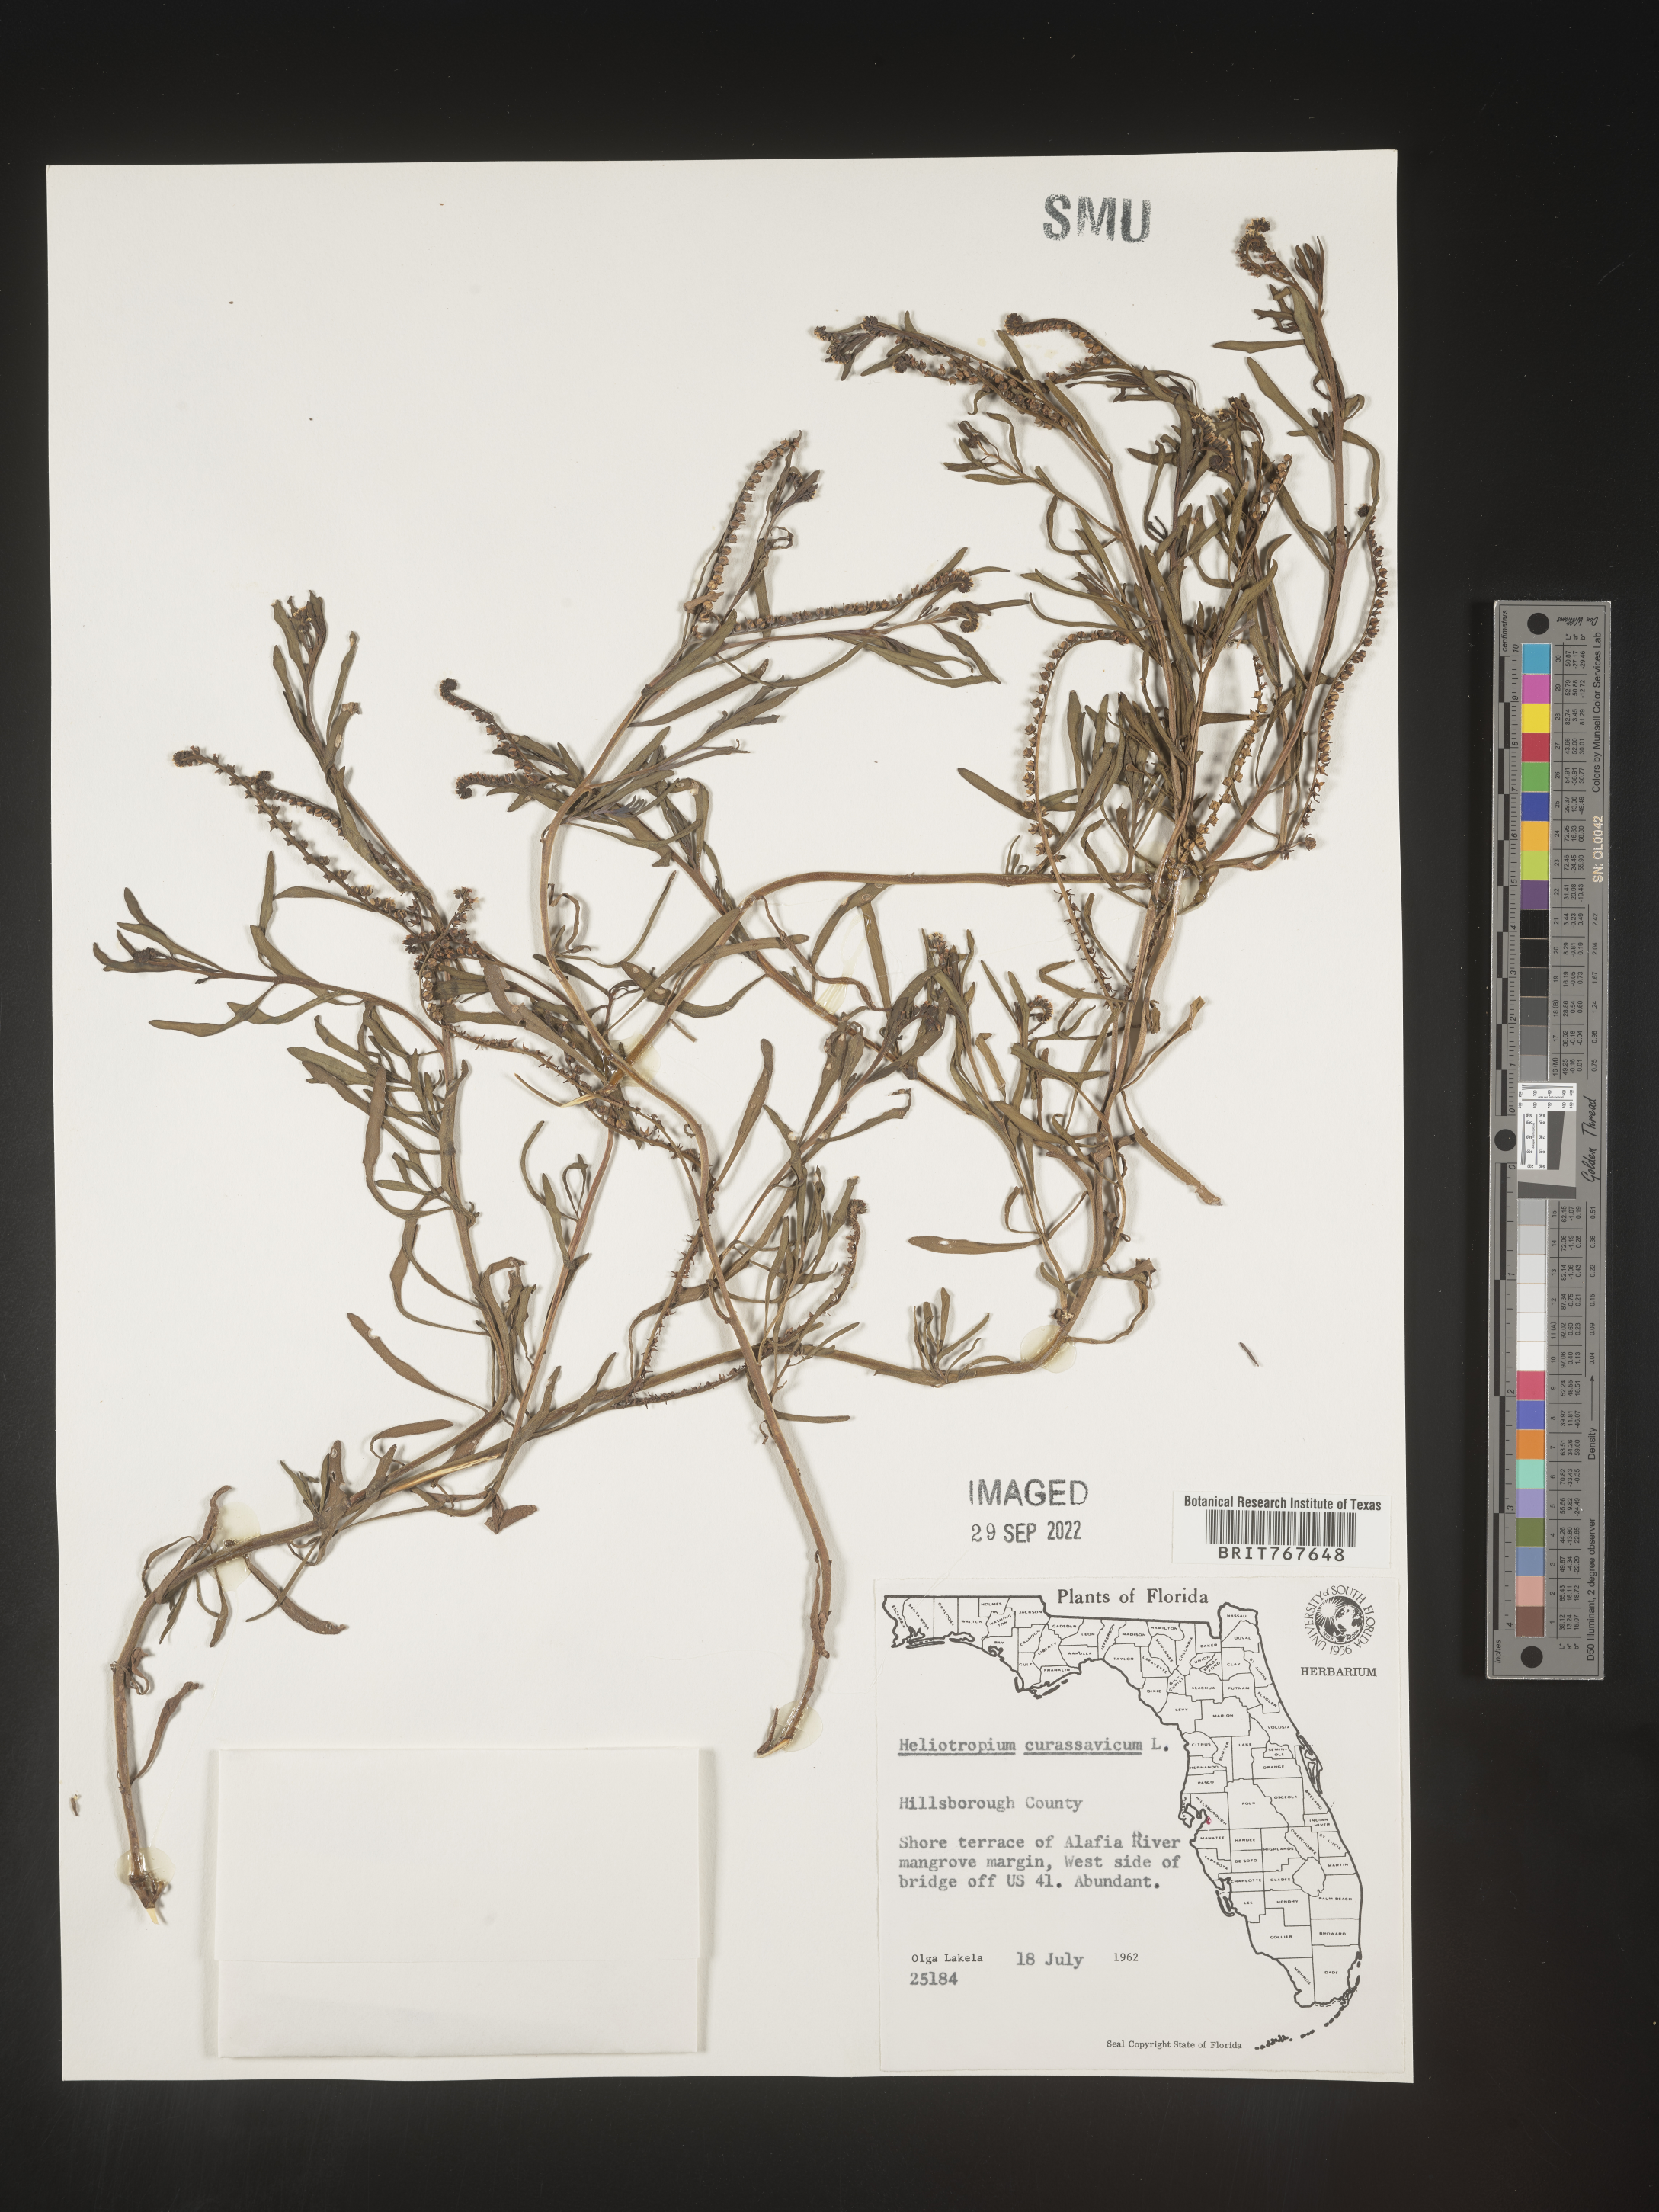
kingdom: Plantae
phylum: Tracheophyta
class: Magnoliopsida
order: Boraginales
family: Heliotropiaceae
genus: Heliotropium
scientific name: Heliotropium curassavicum
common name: Seaside heliotrope
